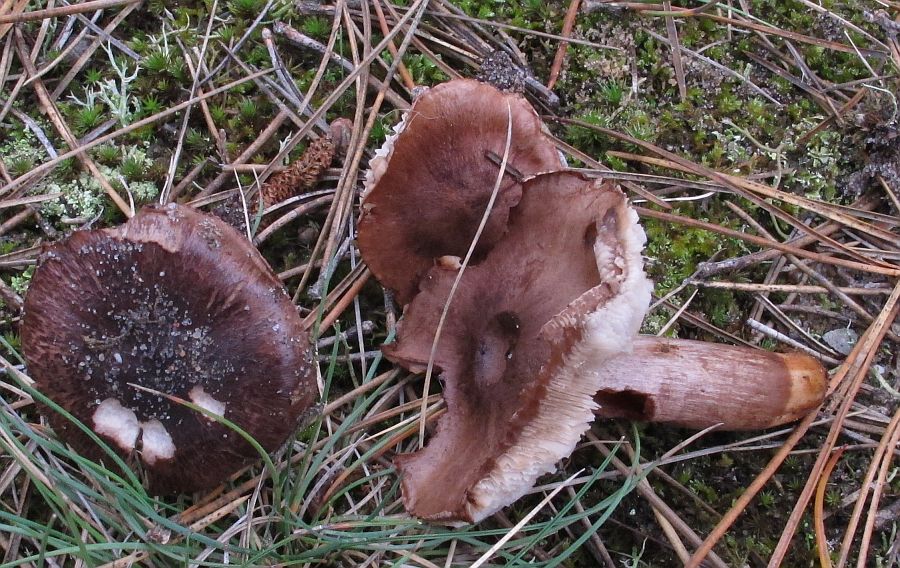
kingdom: Fungi
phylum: Basidiomycota
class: Agaricomycetes
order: Agaricales
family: Tricholomataceae
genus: Tricholoma
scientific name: Tricholoma albobrunneum
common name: kastanie-ridderhat
